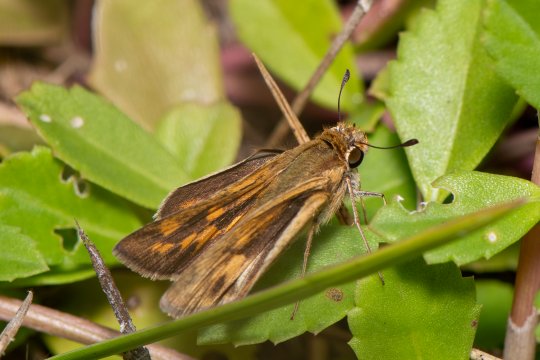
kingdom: Animalia
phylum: Arthropoda
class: Insecta
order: Lepidoptera
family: Hesperiidae
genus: Hylephila
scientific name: Hylephila phyleus
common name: Fiery Skipper
